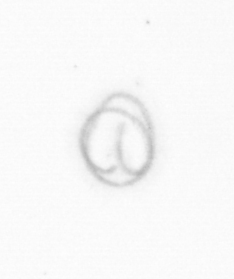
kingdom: Chromista
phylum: Ochrophyta
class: Bacillariophyceae
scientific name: Bacillariophyceae
